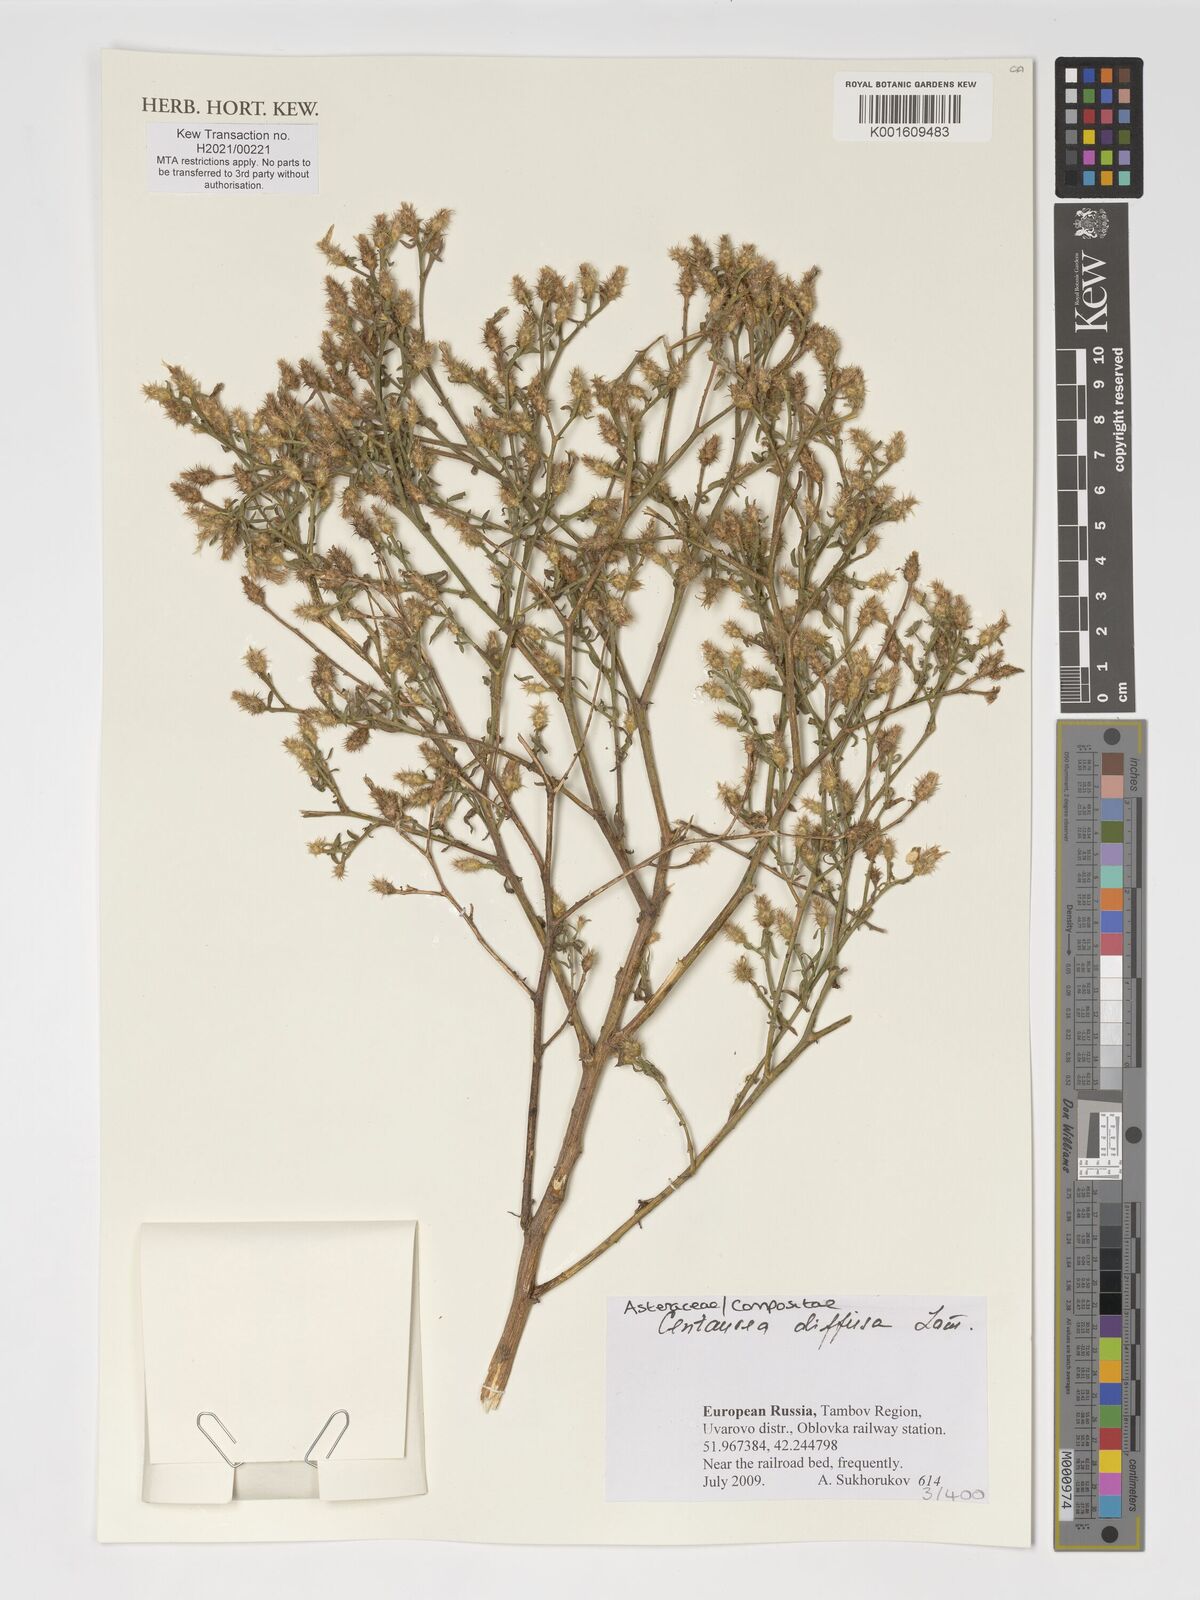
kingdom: Plantae
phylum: Tracheophyta
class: Magnoliopsida
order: Asterales
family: Asteraceae
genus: Centaurea
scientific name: Centaurea diffusa
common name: Diffuse knapweed
